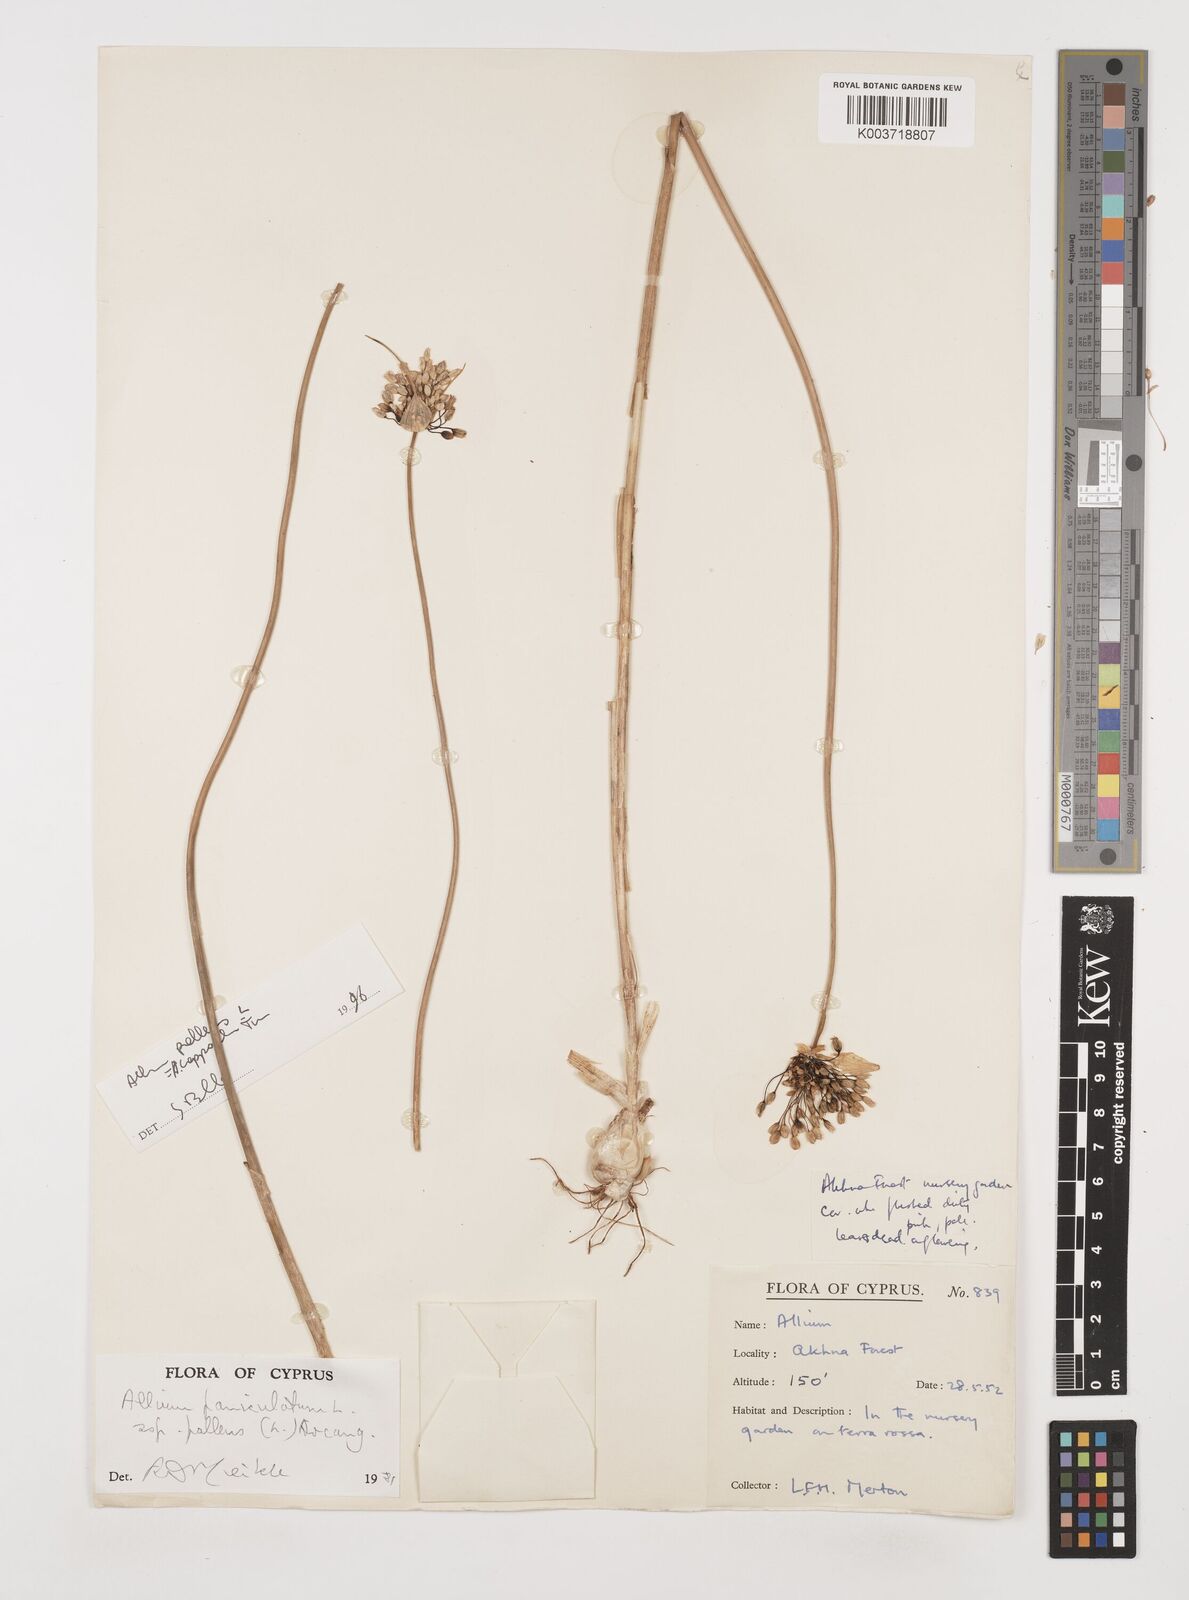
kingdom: Plantae
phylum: Tracheophyta
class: Liliopsida
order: Asparagales
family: Amaryllidaceae
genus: Allium
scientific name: Allium paniculatum
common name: Pale garlic
